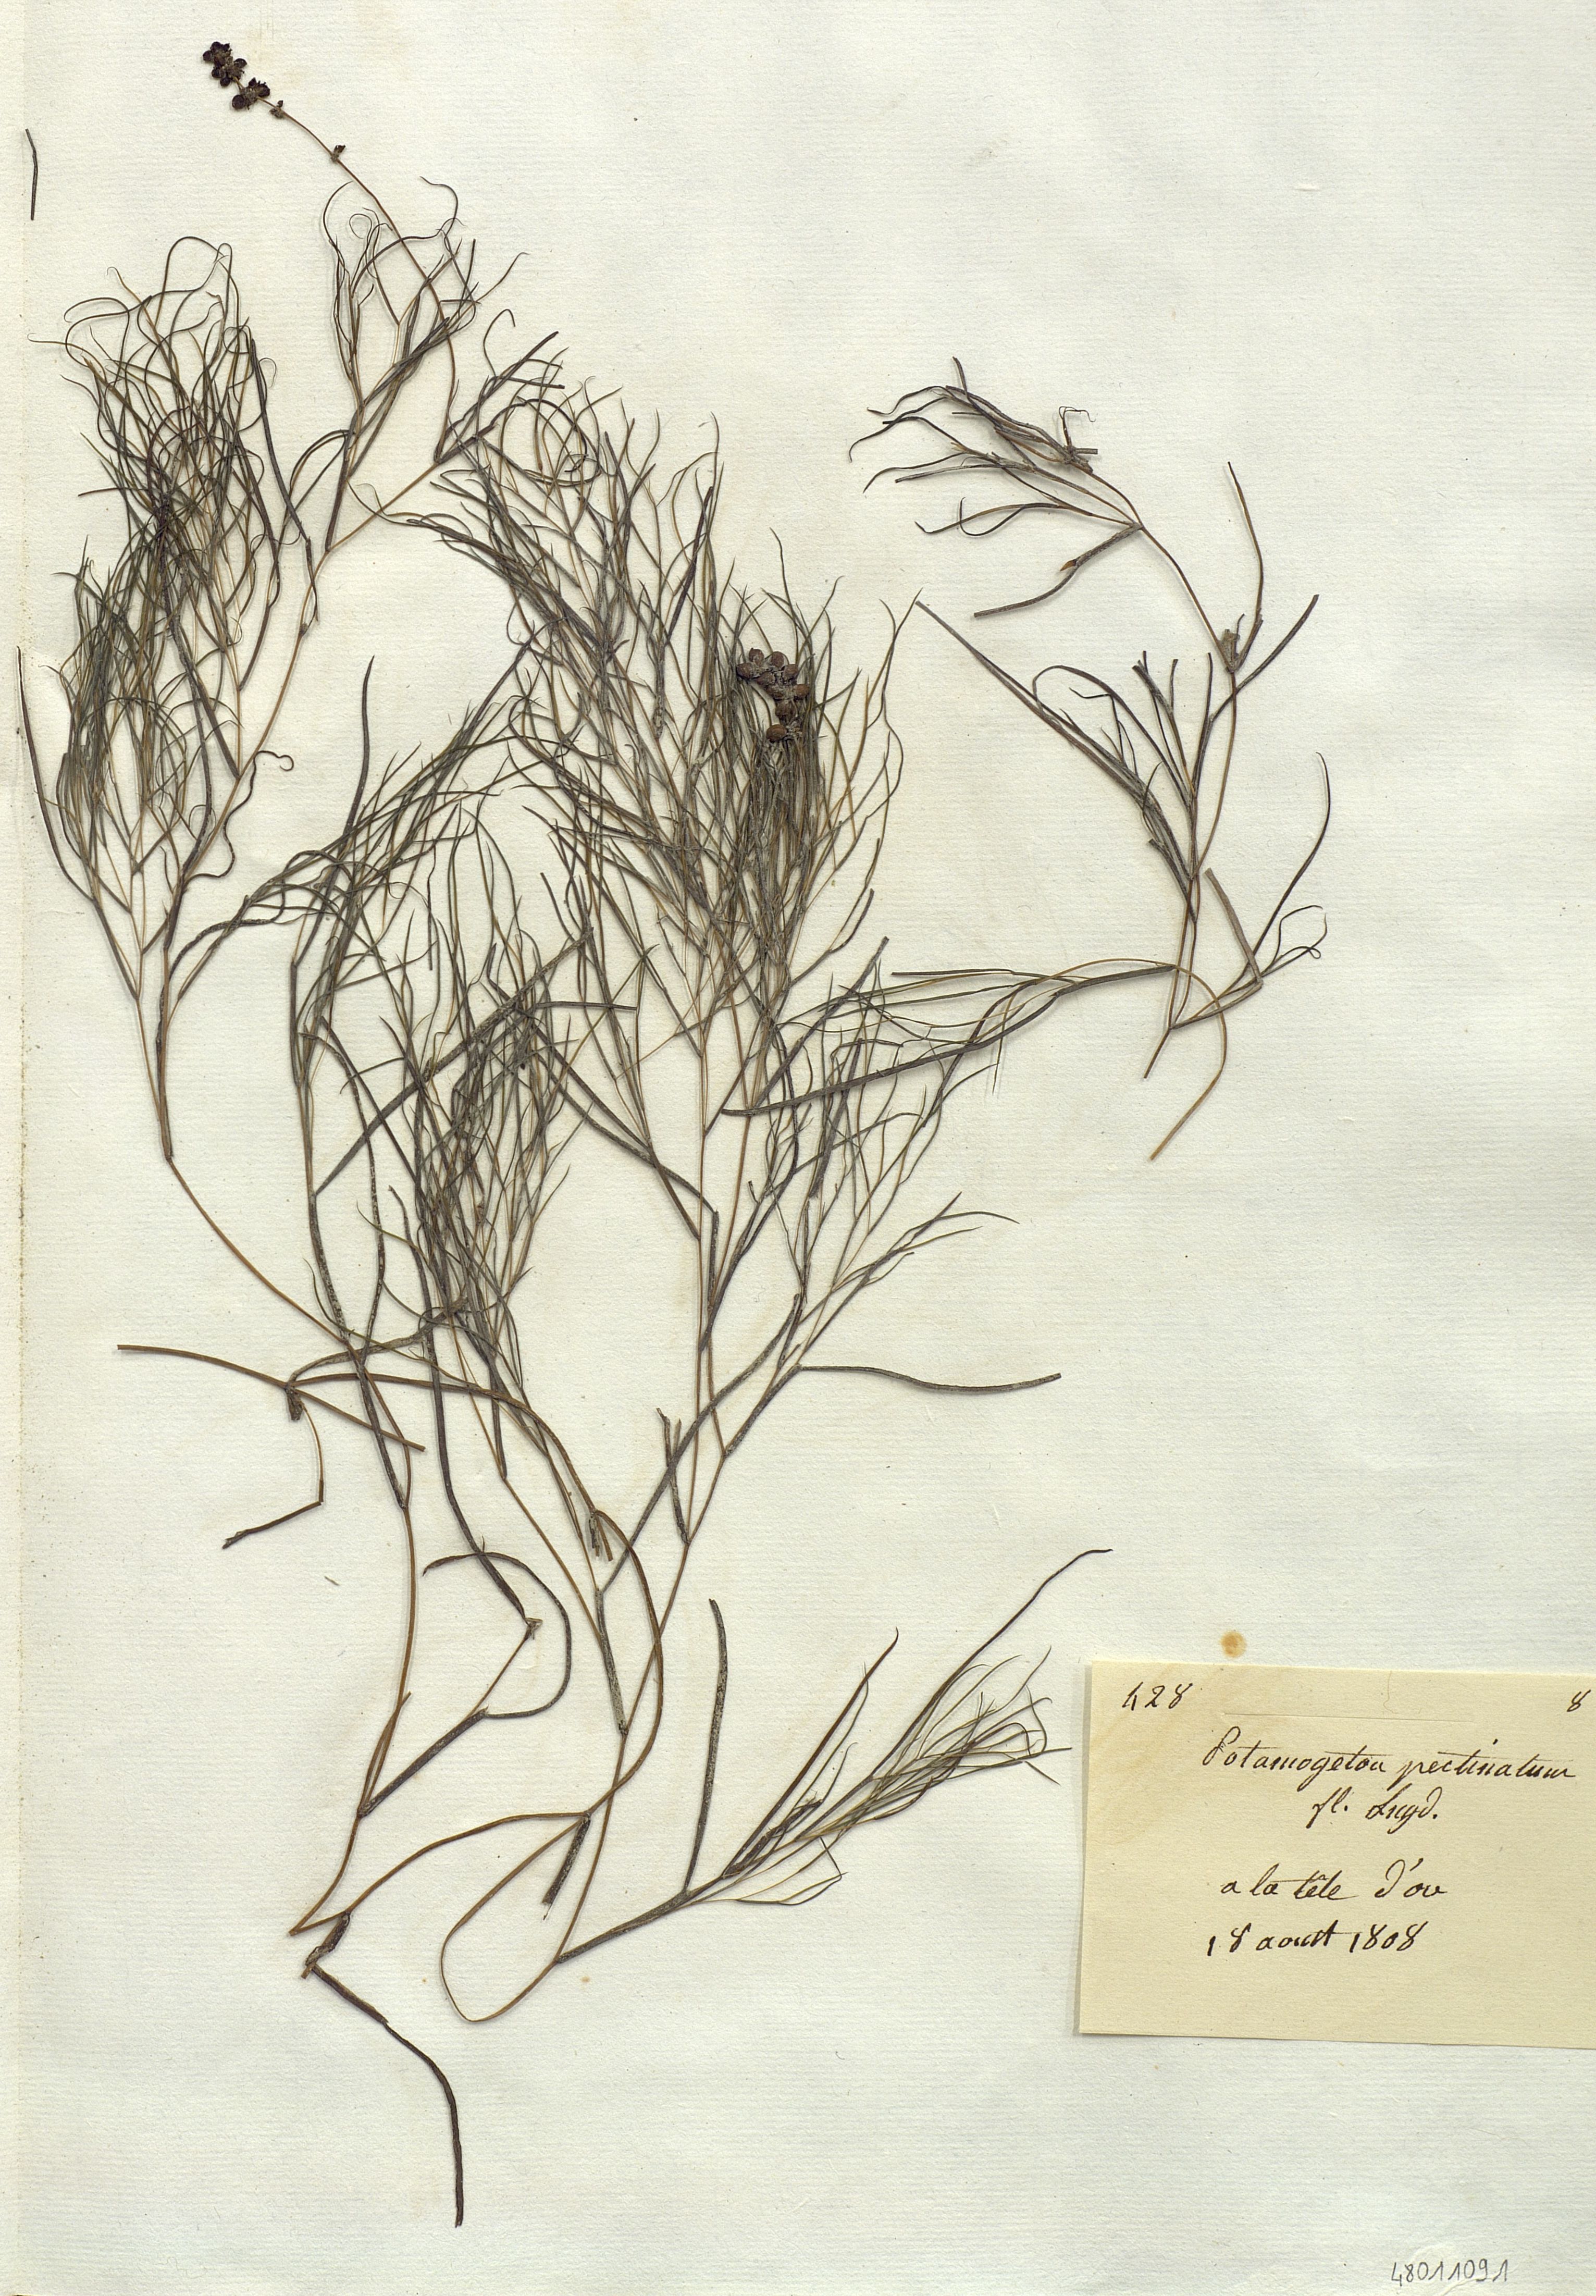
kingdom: Plantae
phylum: Tracheophyta
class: Liliopsida
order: Alismatales
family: Potamogetonaceae
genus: Stuckenia
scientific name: Stuckenia pectinata
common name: Sago pondweed
